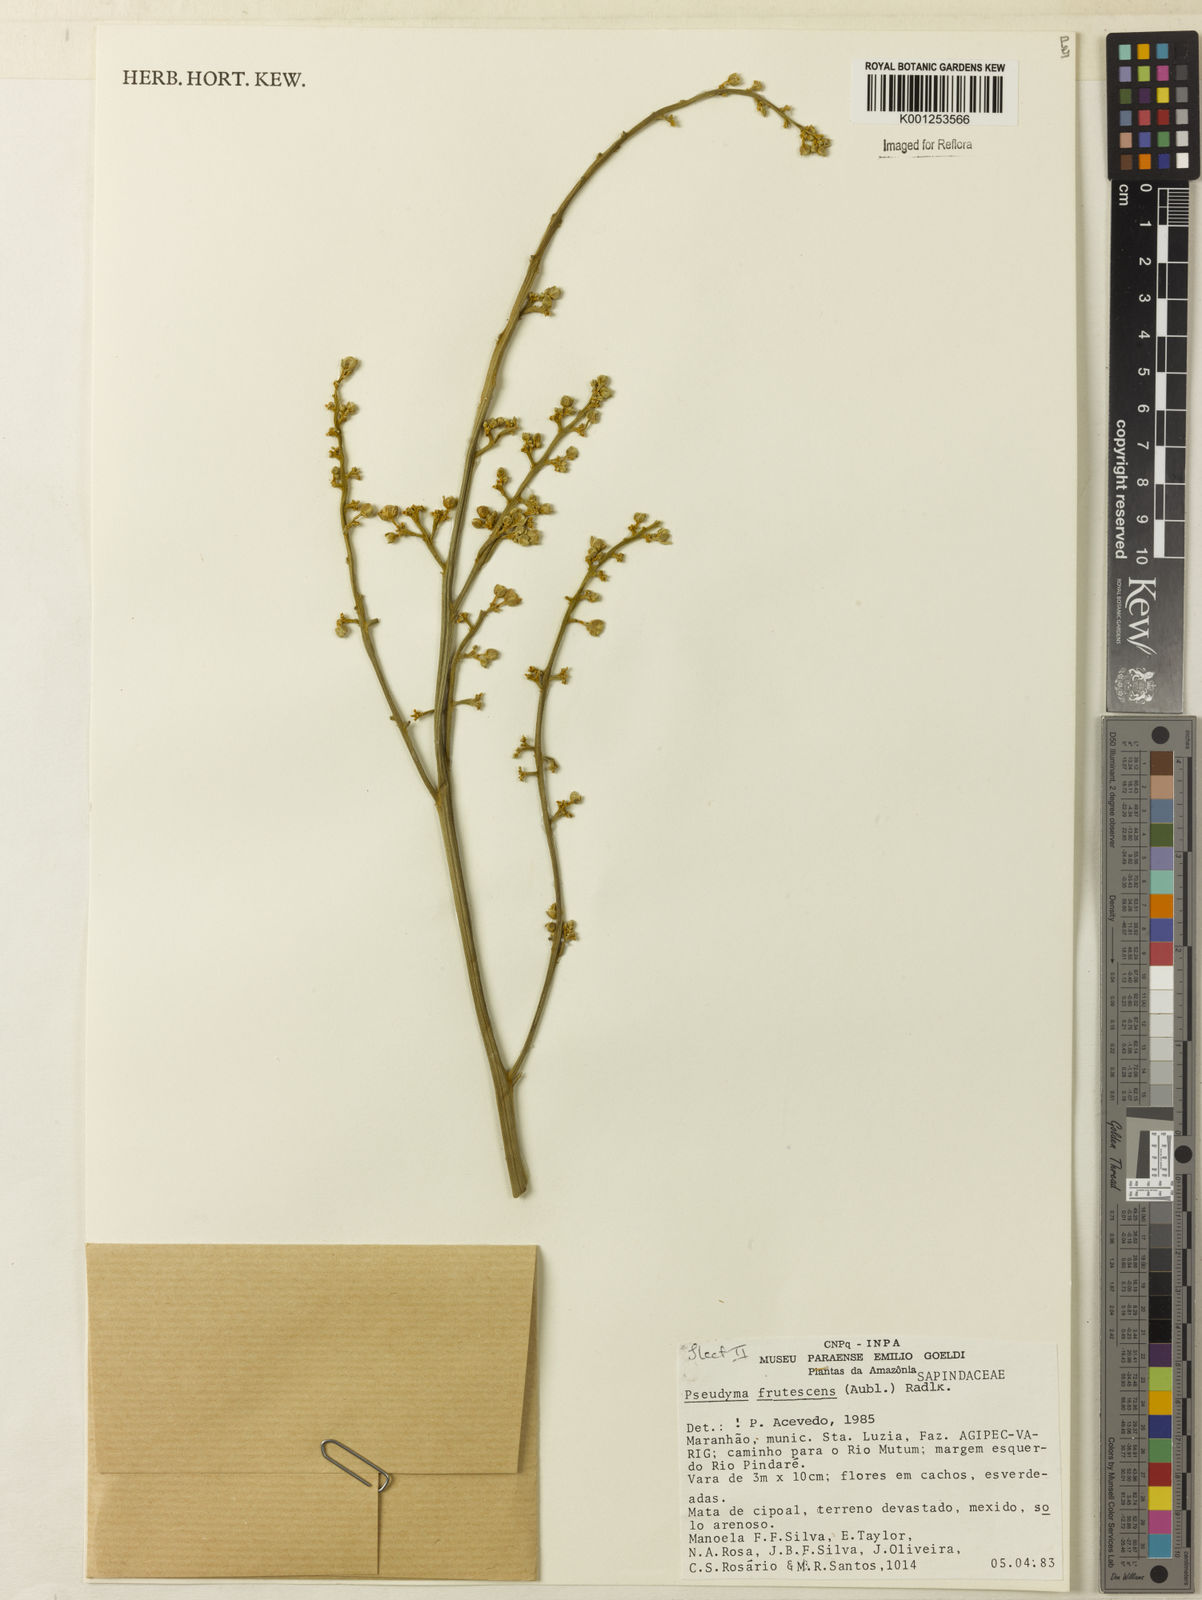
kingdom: Plantae
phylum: Tracheophyta
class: Magnoliopsida
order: Sapindales
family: Sapindaceae
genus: Pseudima
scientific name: Pseudima frutescens
